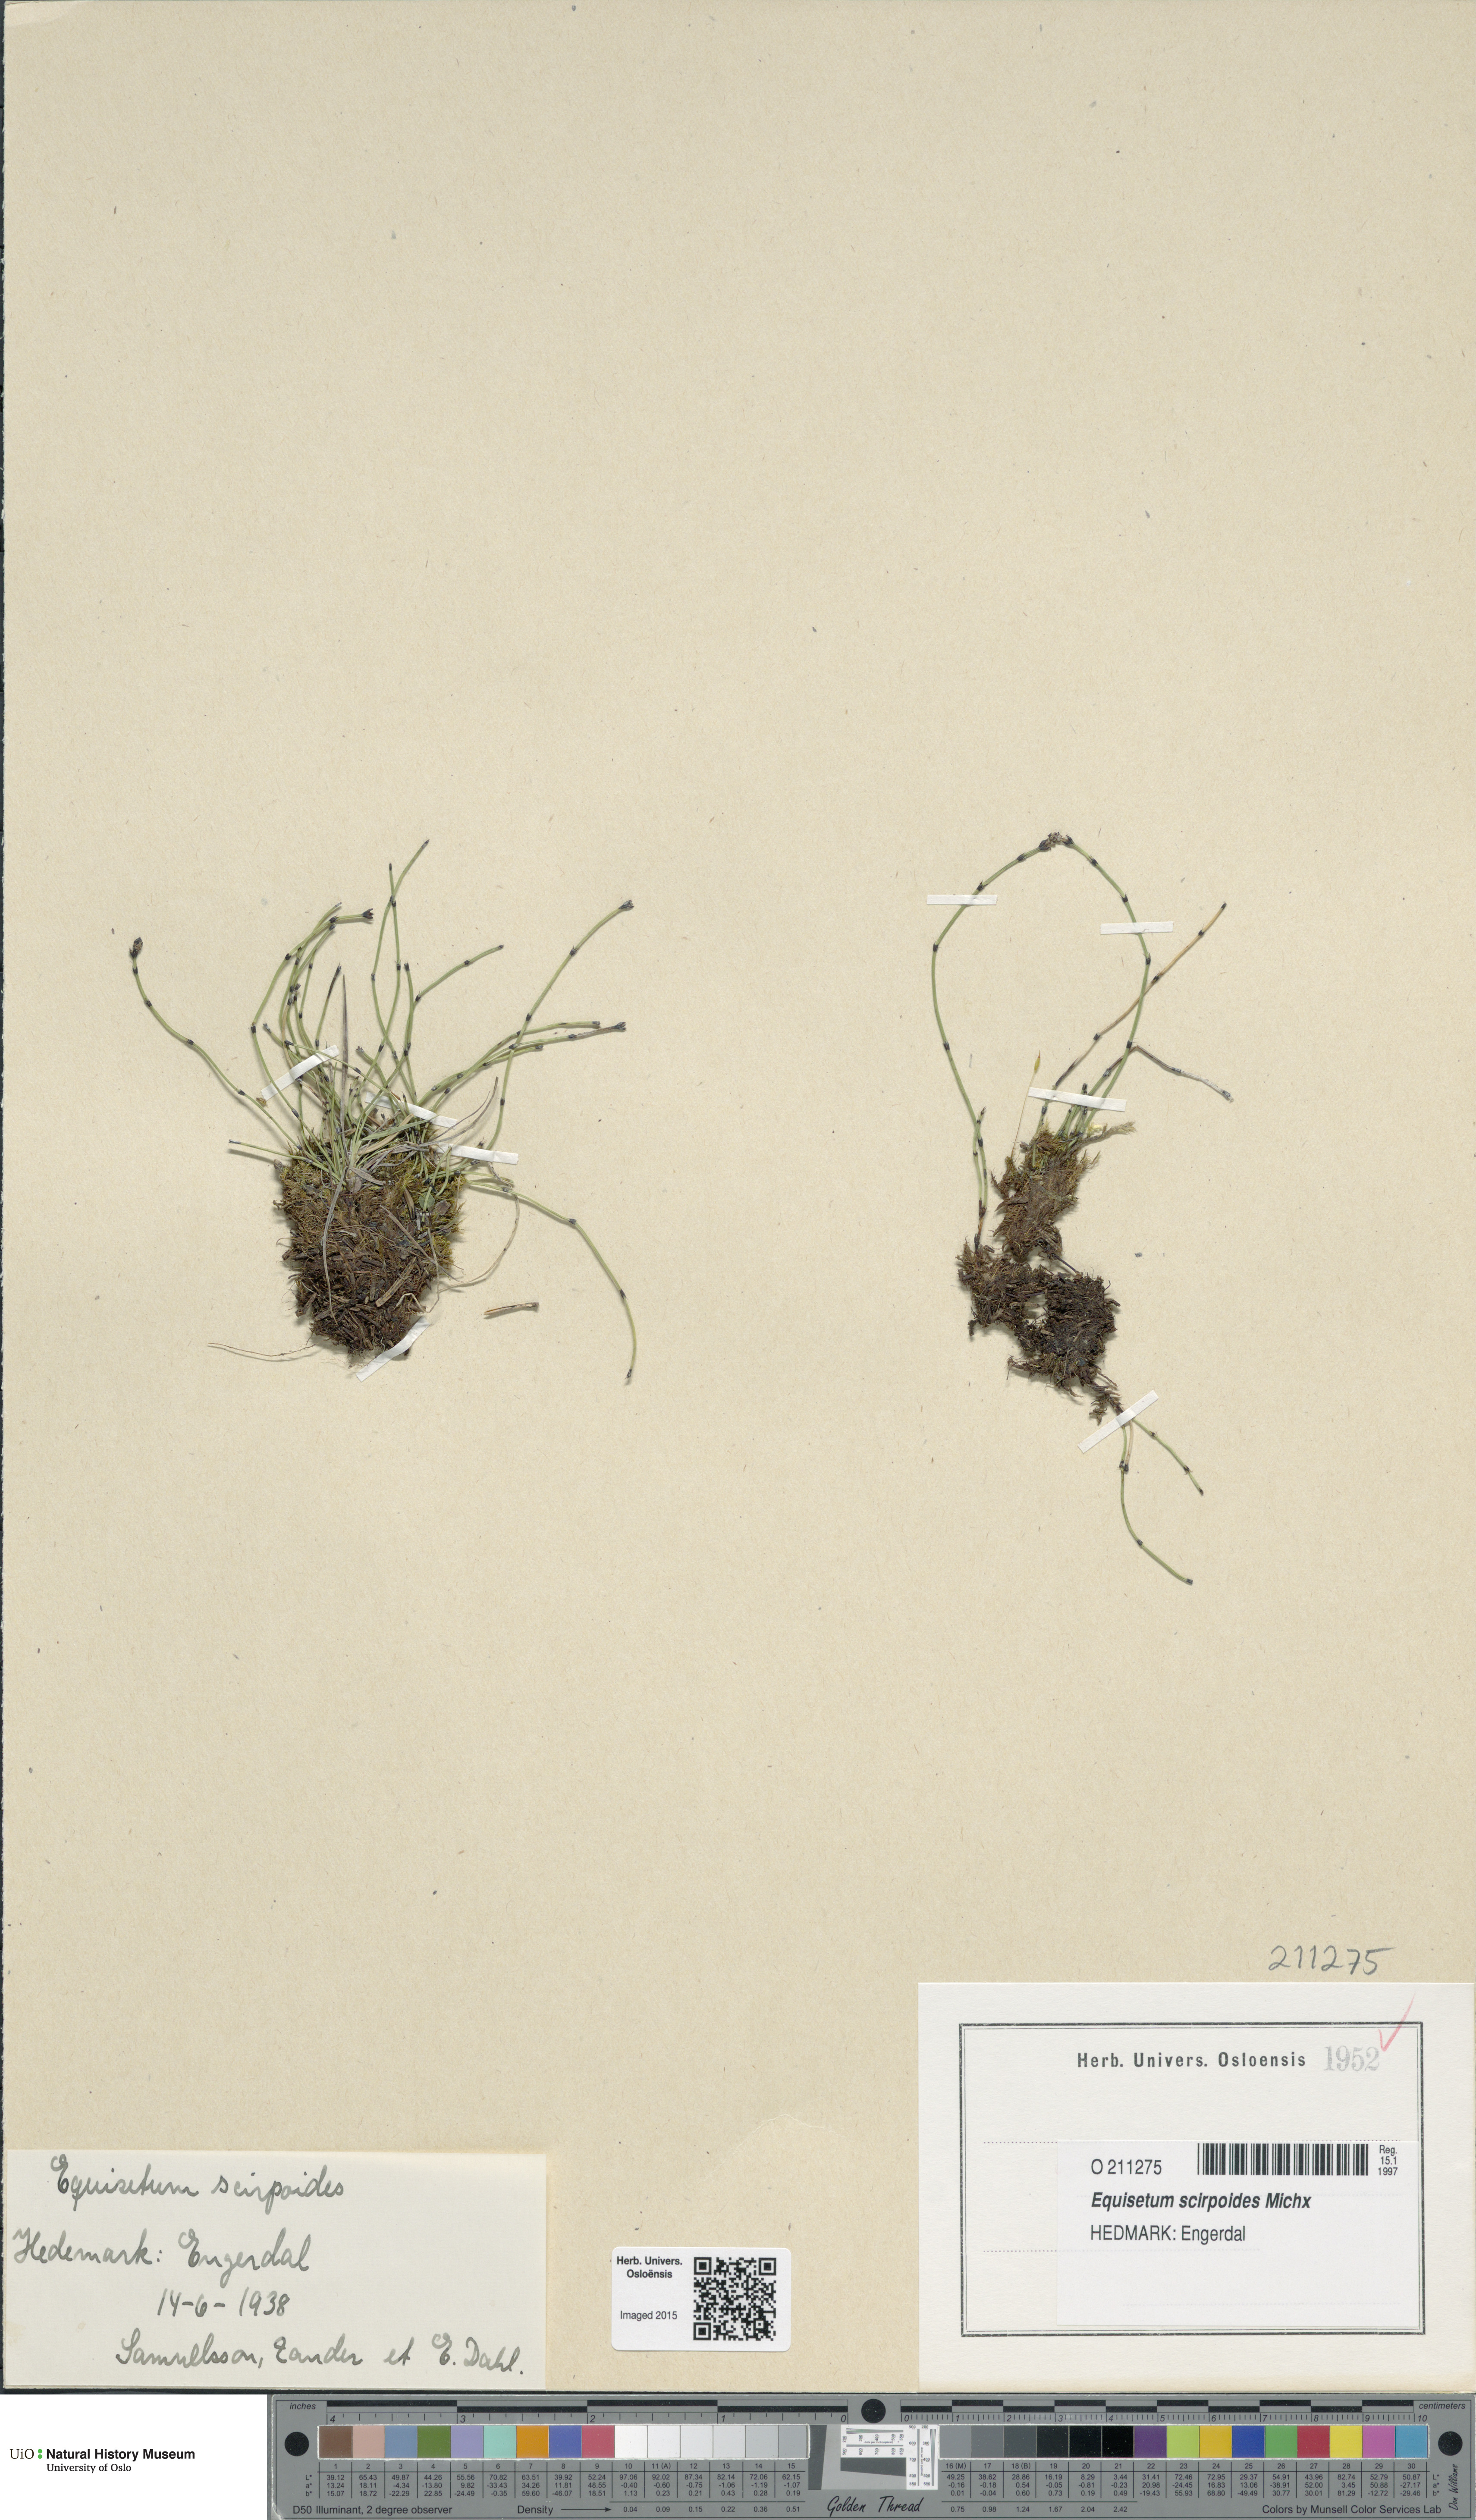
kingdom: Plantae
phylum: Tracheophyta
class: Polypodiopsida
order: Equisetales
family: Equisetaceae
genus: Equisetum
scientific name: Equisetum scirpoides
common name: Delicate horsetail
